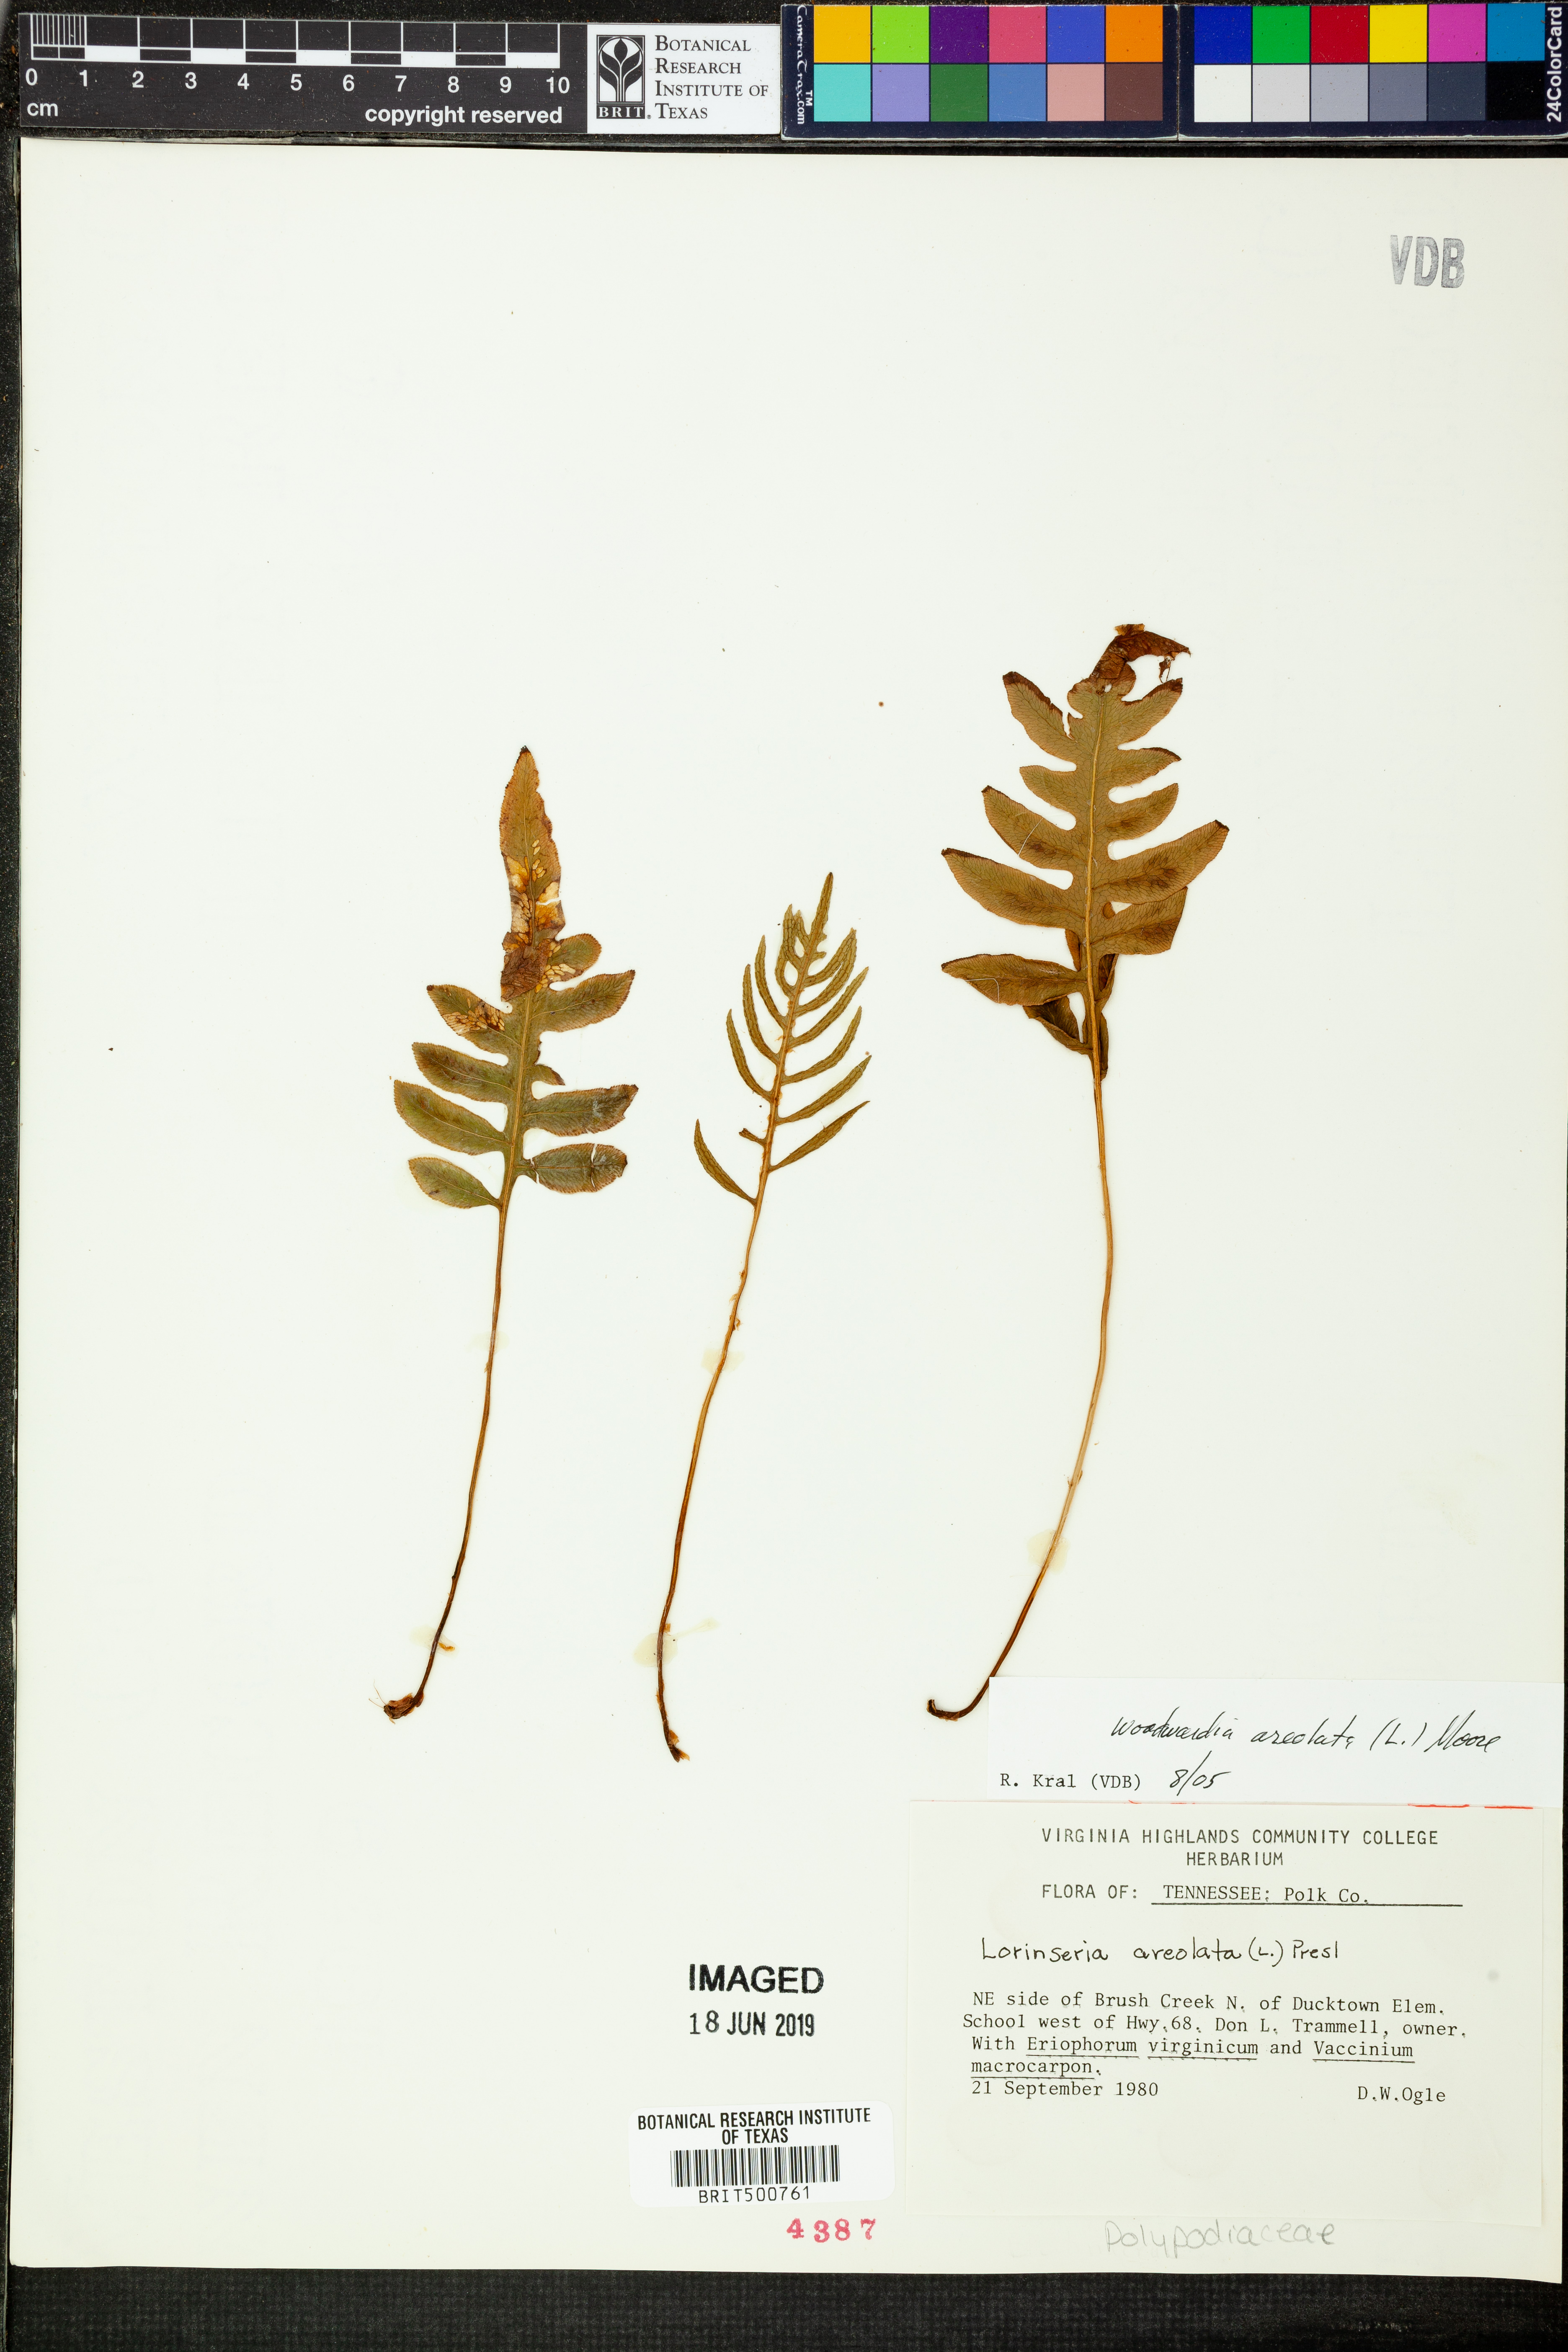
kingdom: Plantae
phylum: Tracheophyta
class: Polypodiopsida
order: Polypodiales
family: Blechnaceae
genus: Lorinseria
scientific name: Lorinseria areolata
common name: Dwarf chain fern
